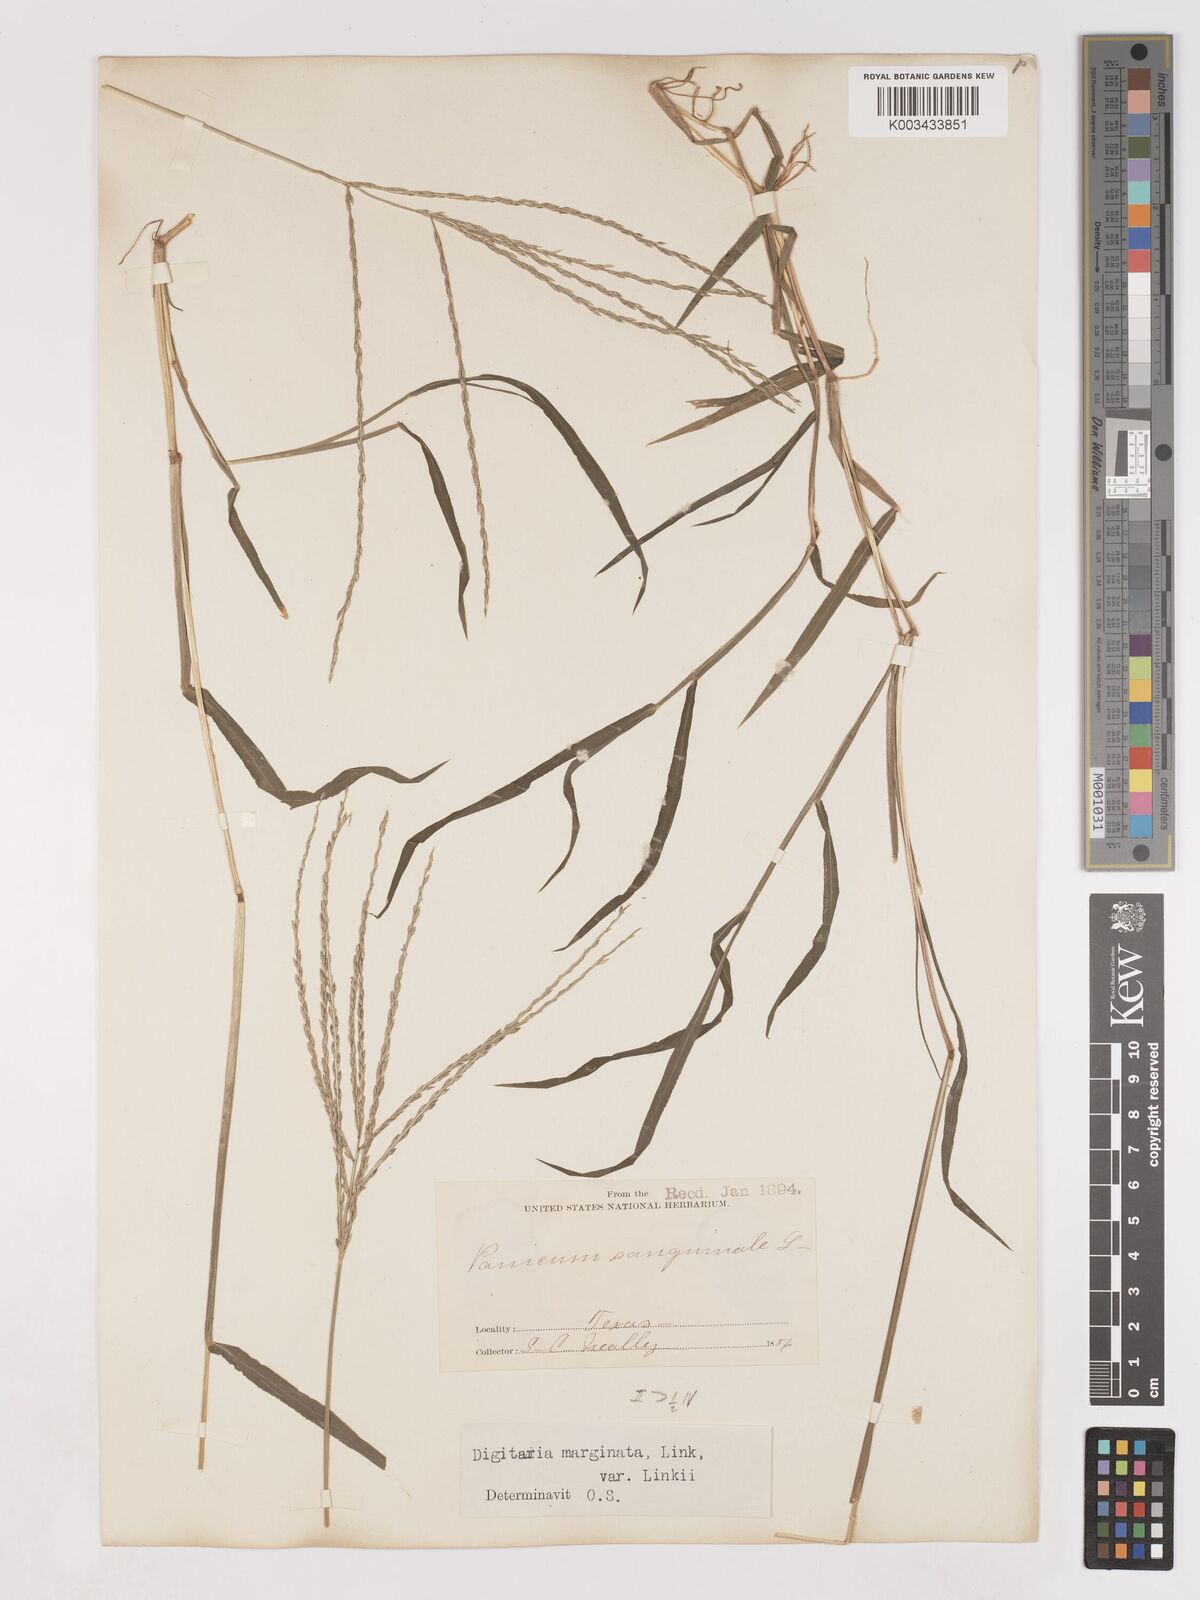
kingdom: Plantae
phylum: Tracheophyta
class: Liliopsida
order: Poales
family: Poaceae
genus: Digitaria
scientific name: Digitaria ciliaris
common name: Tropical finger-grass
